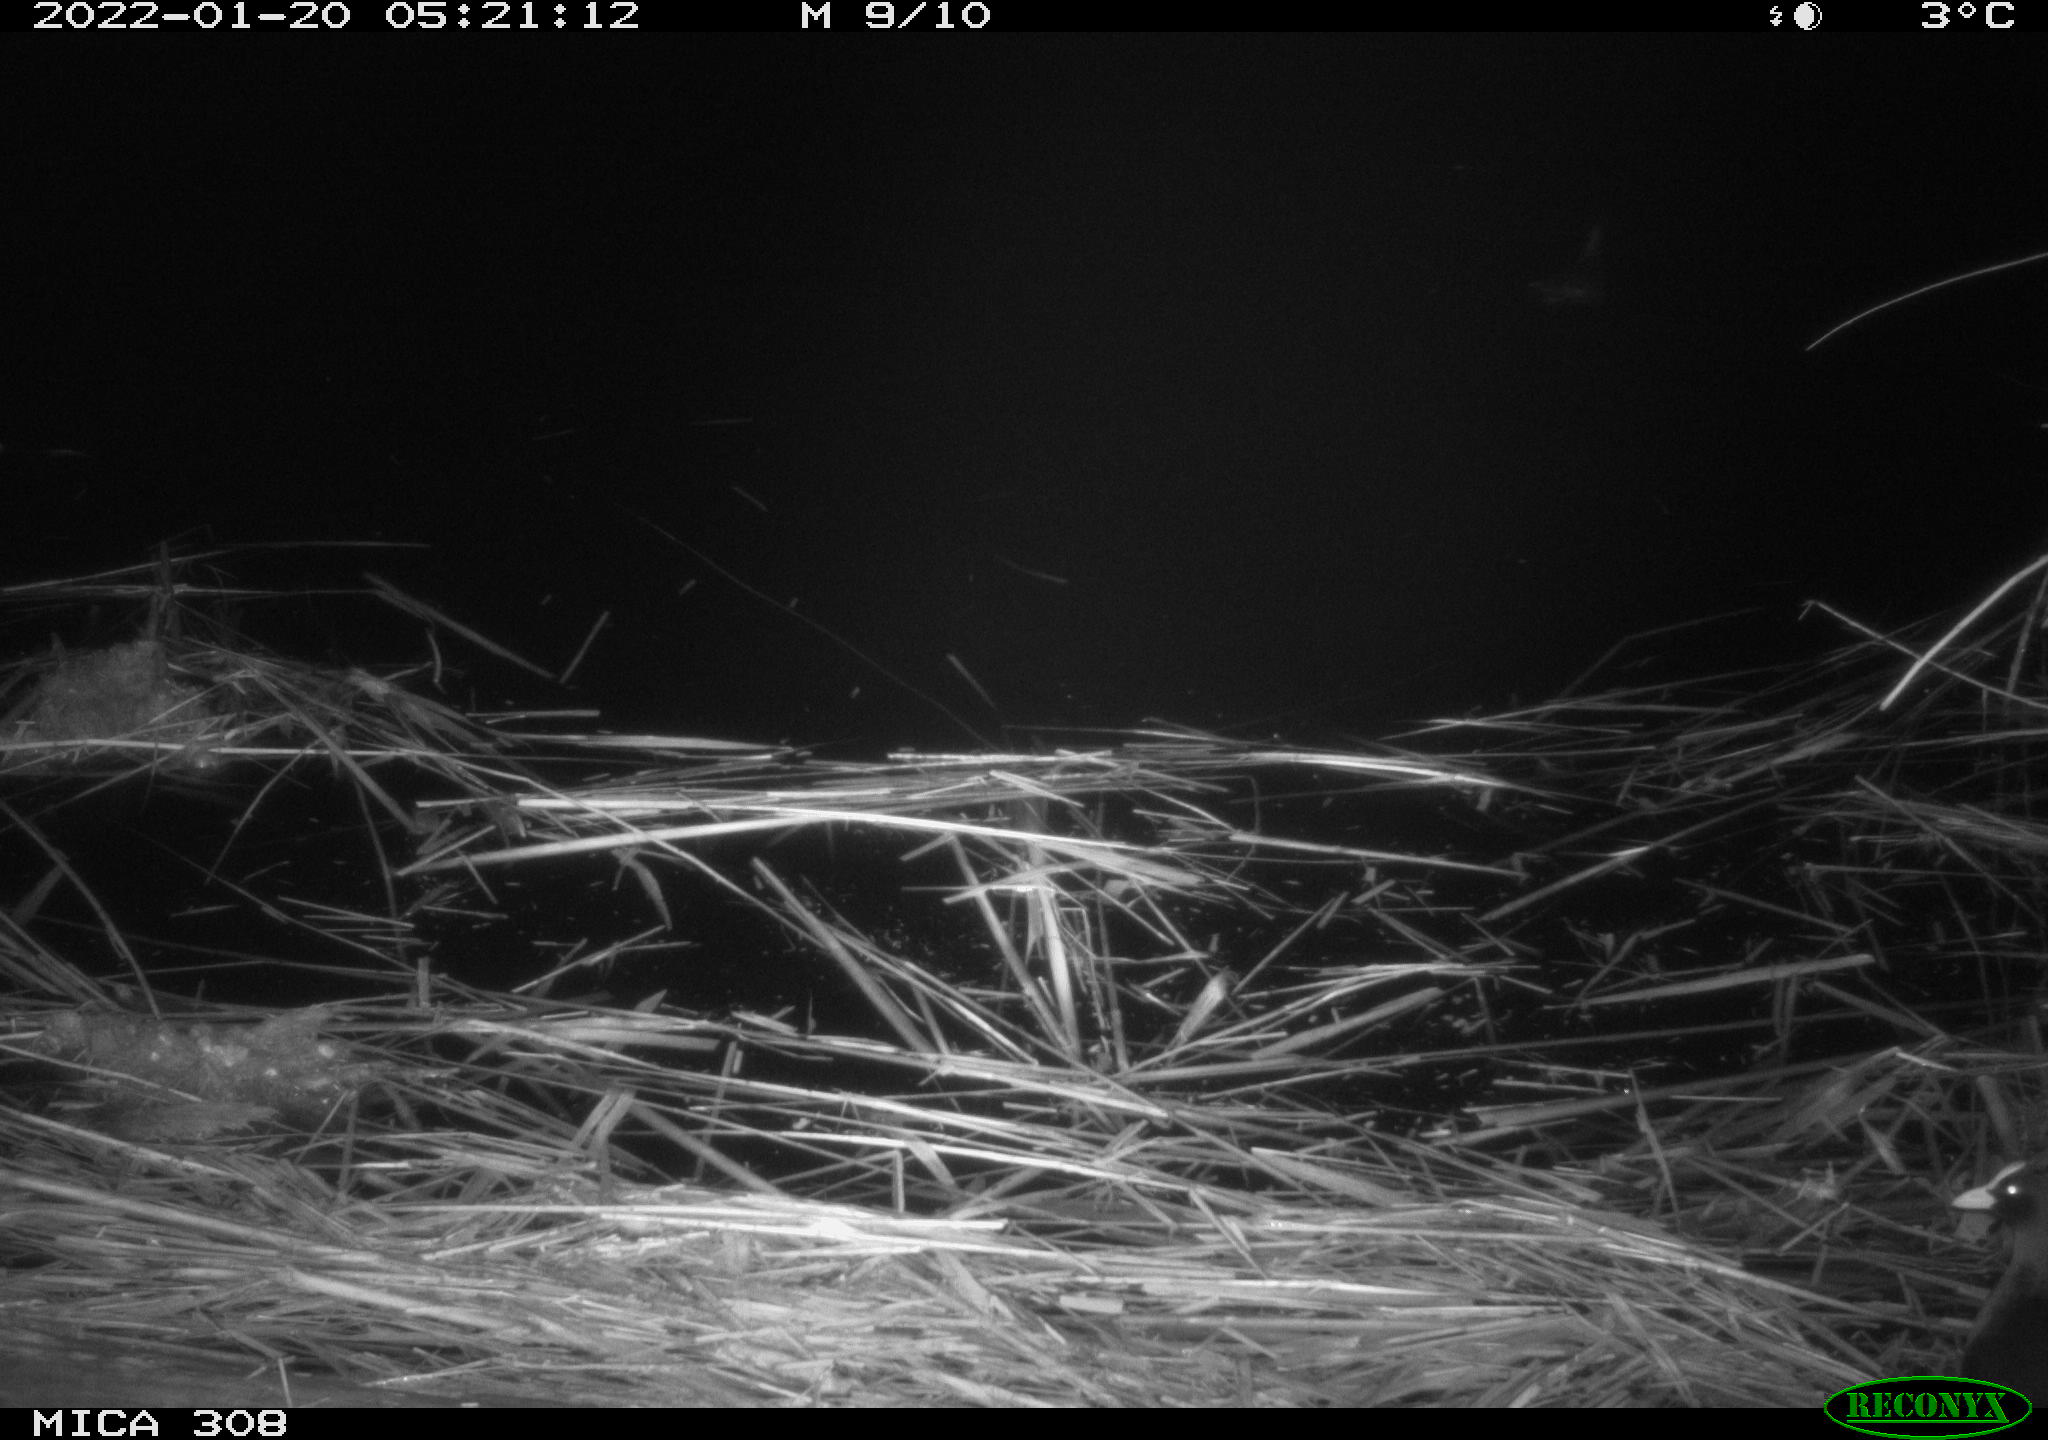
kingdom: Animalia
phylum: Chordata
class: Aves
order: Anseriformes
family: Anatidae
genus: Anas
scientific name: Anas
